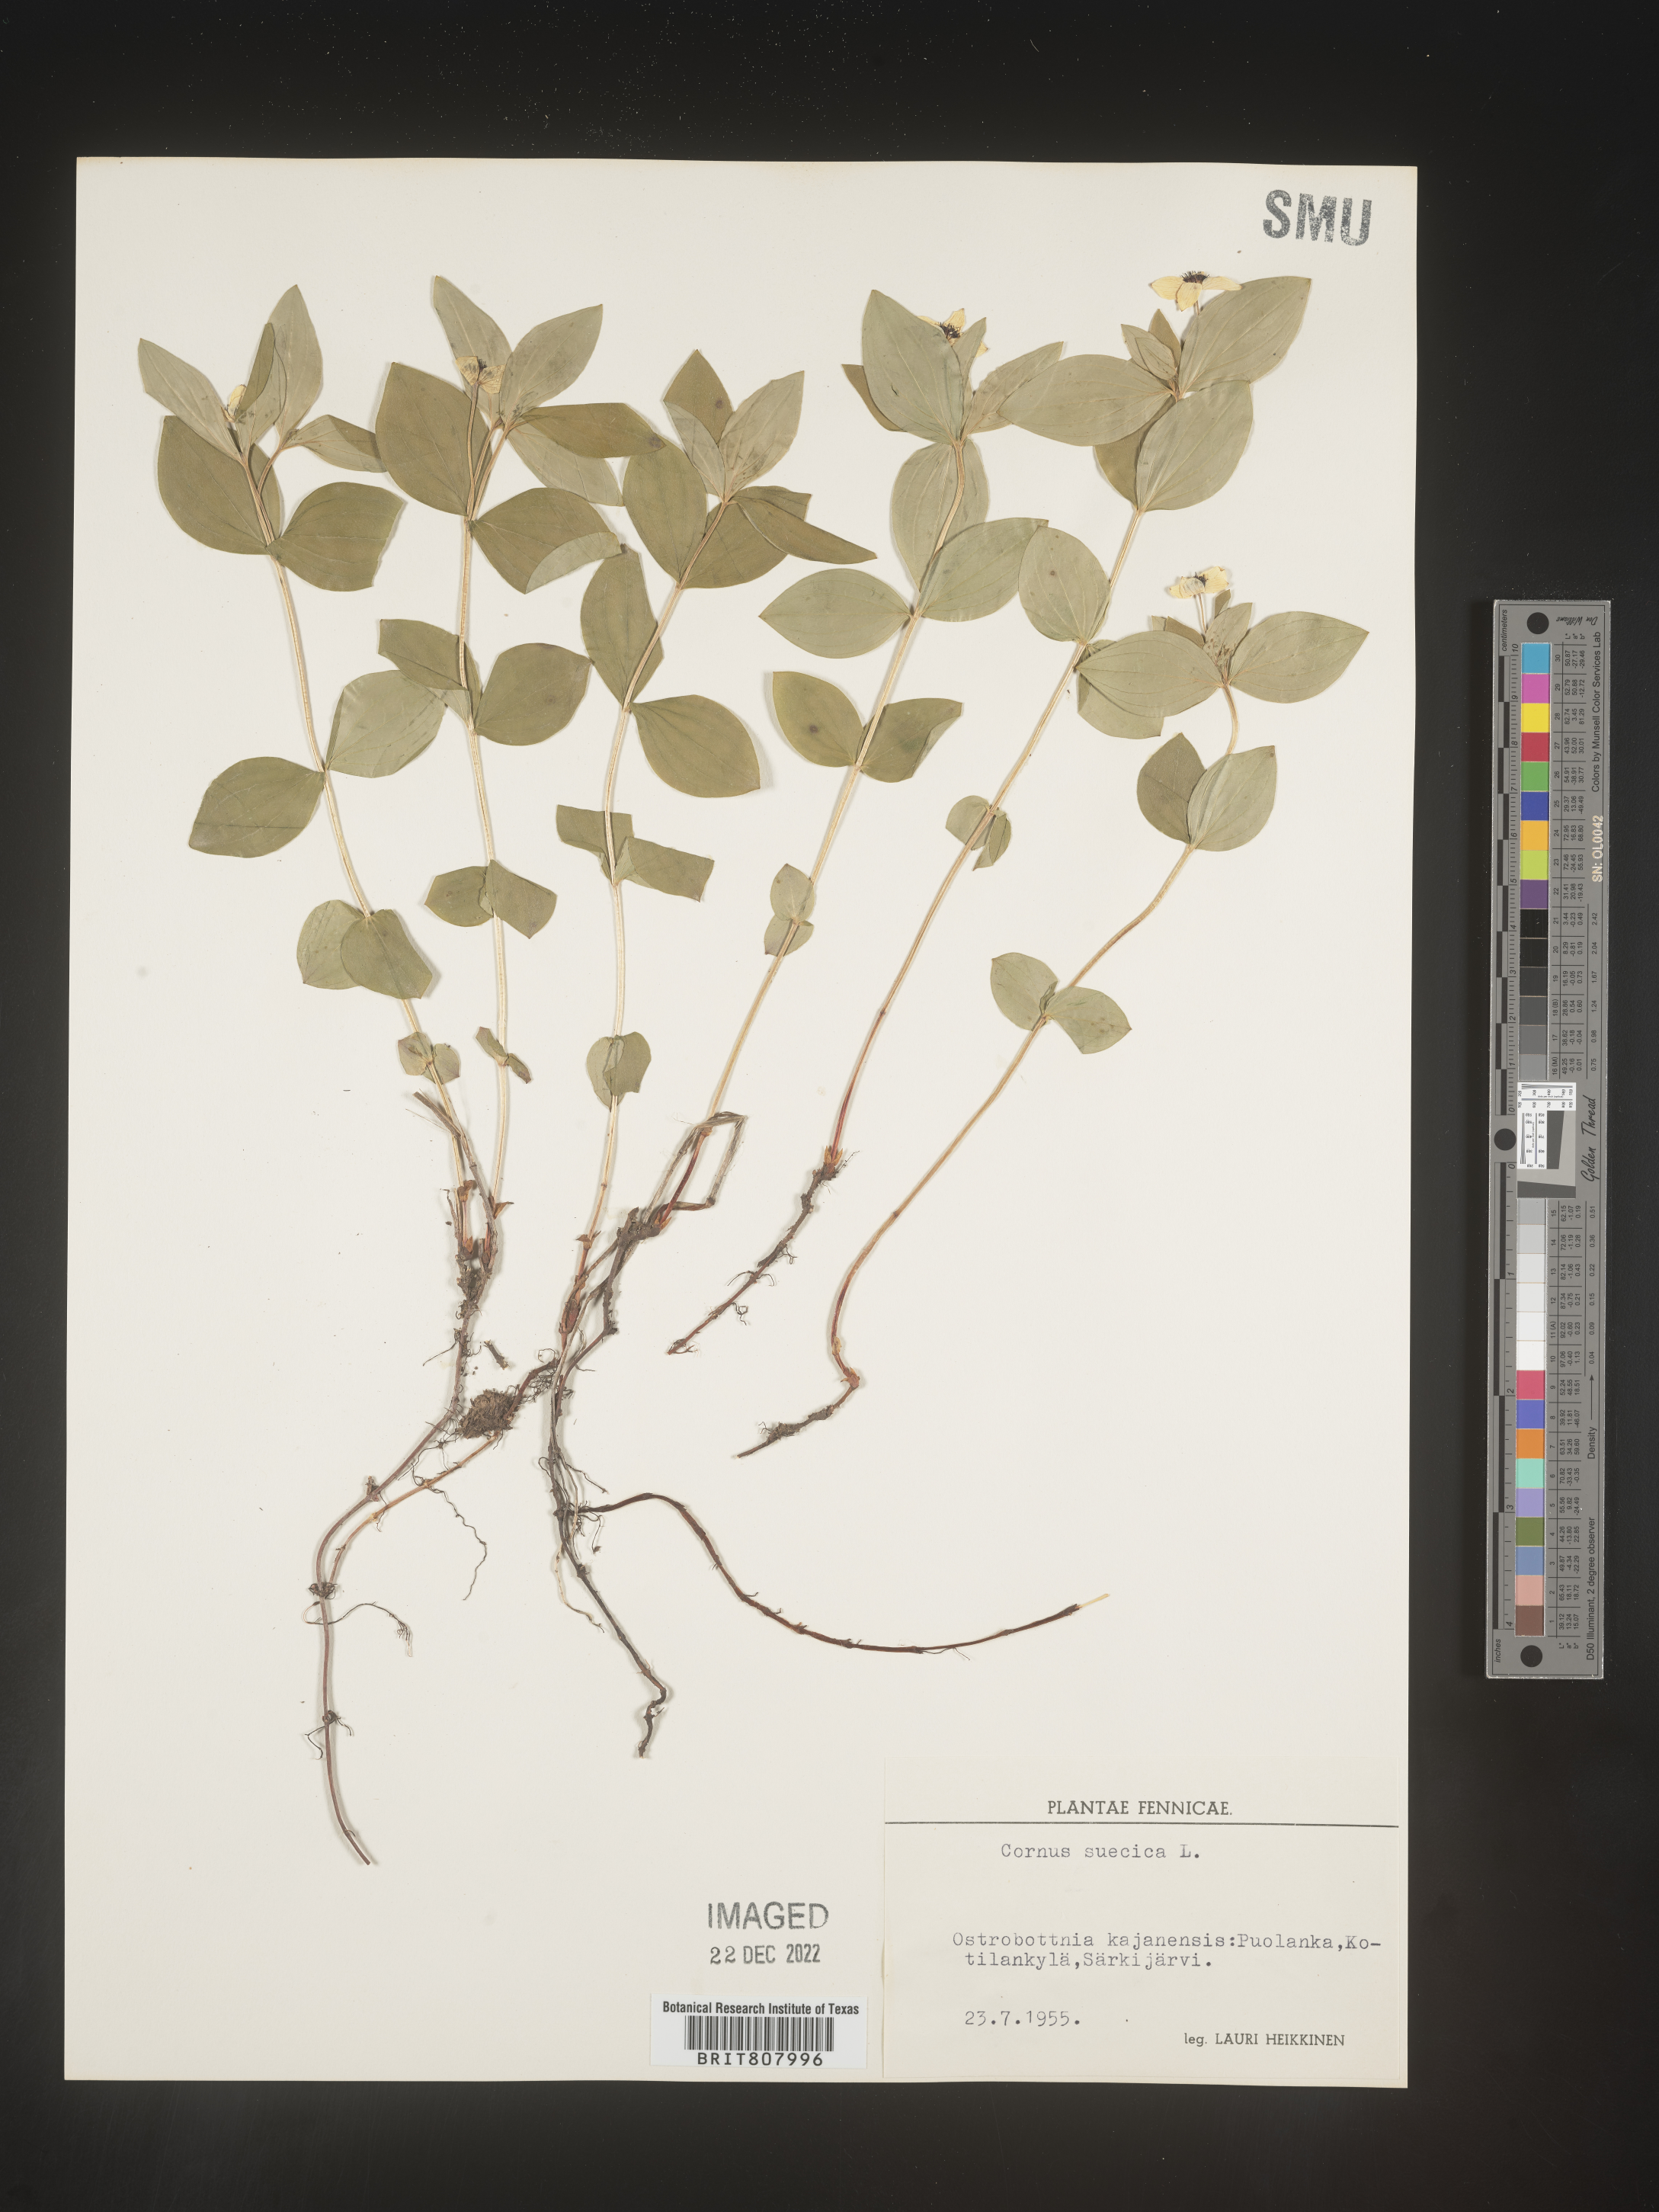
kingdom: Plantae
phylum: Tracheophyta
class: Magnoliopsida
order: Cornales
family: Cornaceae
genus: Cornus
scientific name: Cornus
